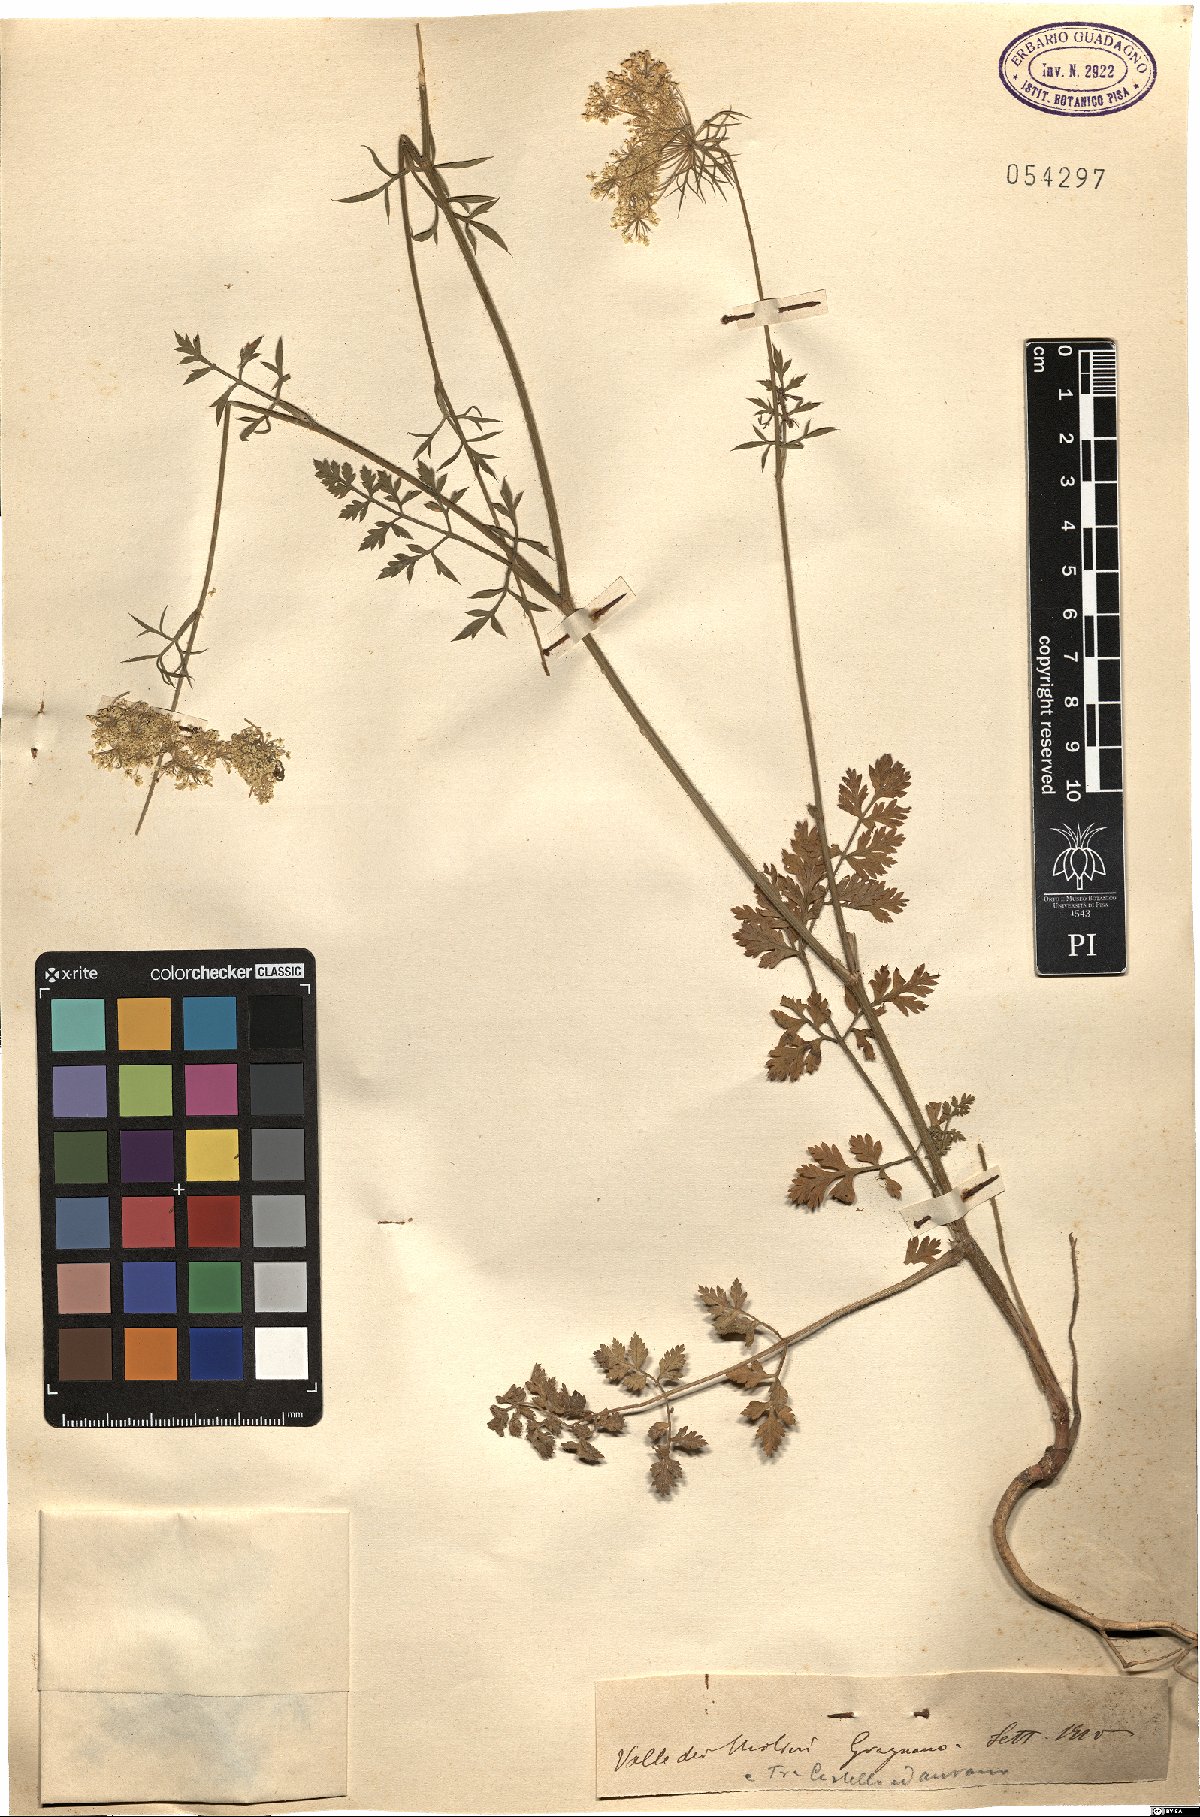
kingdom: Plantae
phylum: Tracheophyta
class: Magnoliopsida
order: Apiales
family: Apiaceae
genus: Daucus
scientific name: Daucus
